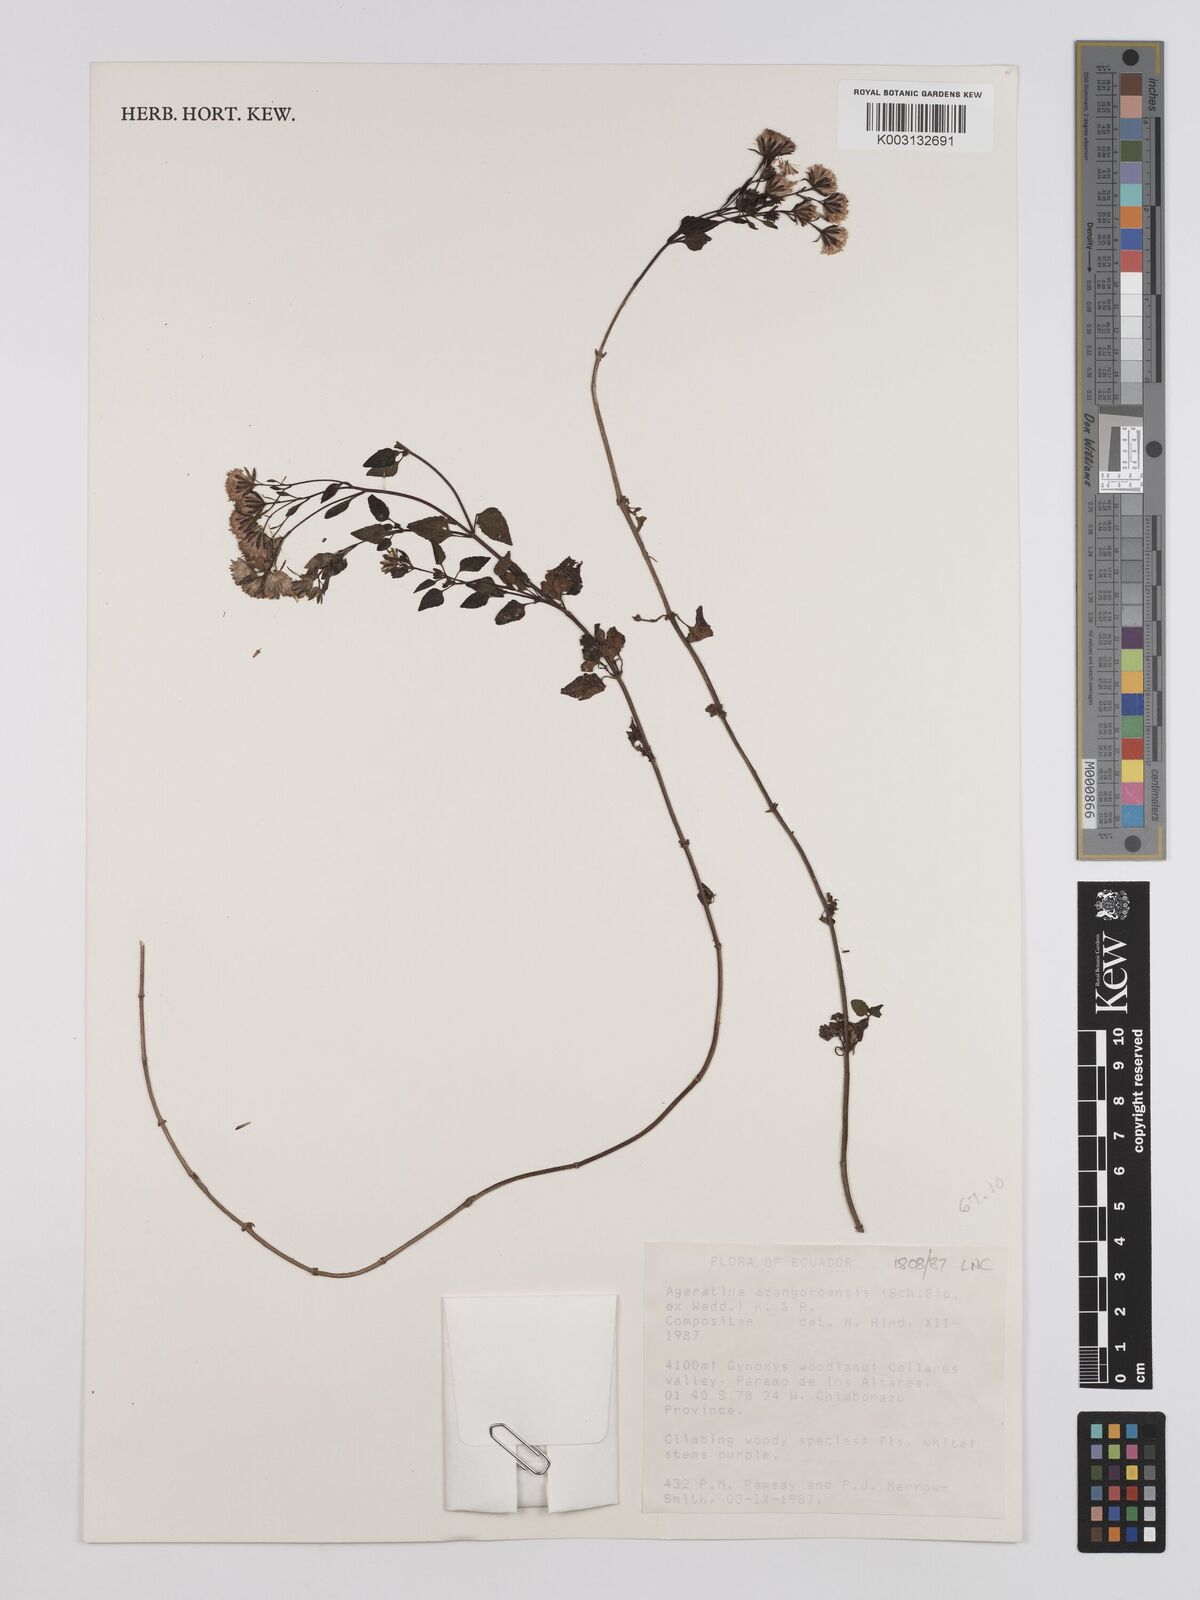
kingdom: Plantae
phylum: Tracheophyta
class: Magnoliopsida
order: Asterales
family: Asteraceae
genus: Ageratina
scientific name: Ageratina glechonophylla
